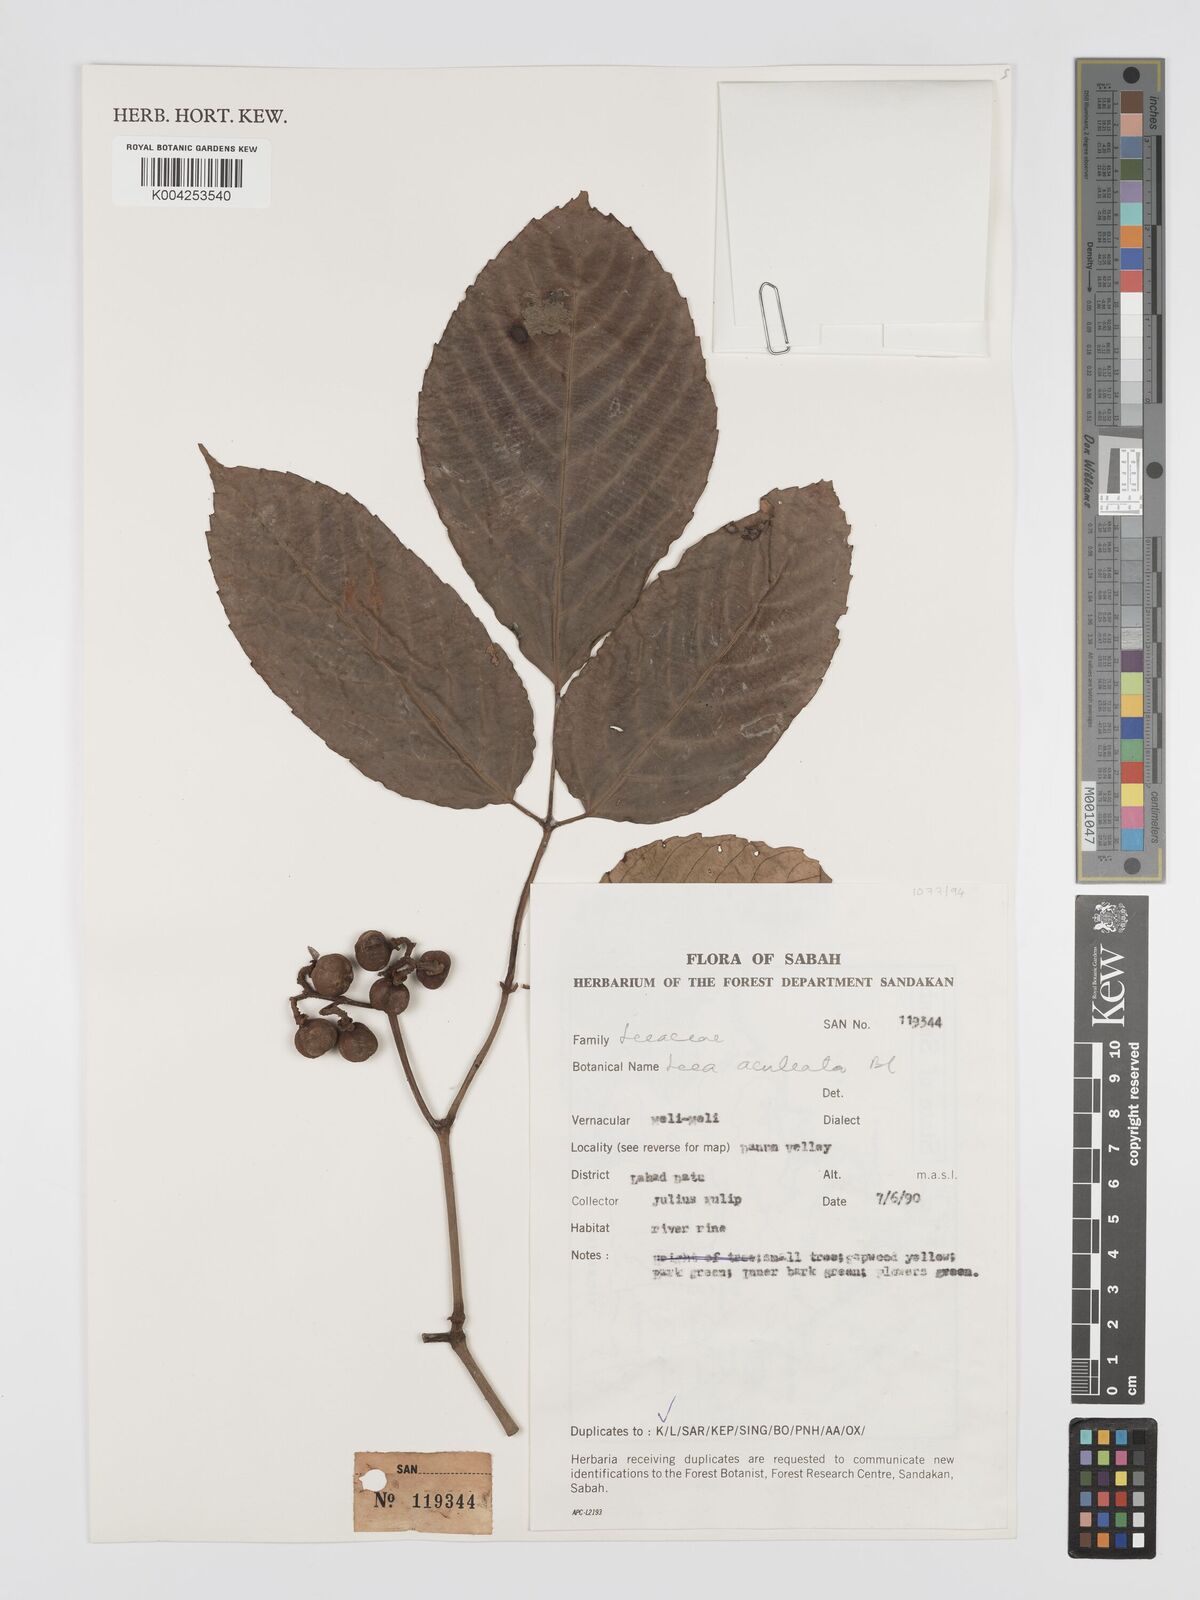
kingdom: Plantae
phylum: Tracheophyta
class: Magnoliopsida
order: Vitales
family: Vitaceae
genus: Leea
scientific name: Leea aculeata
